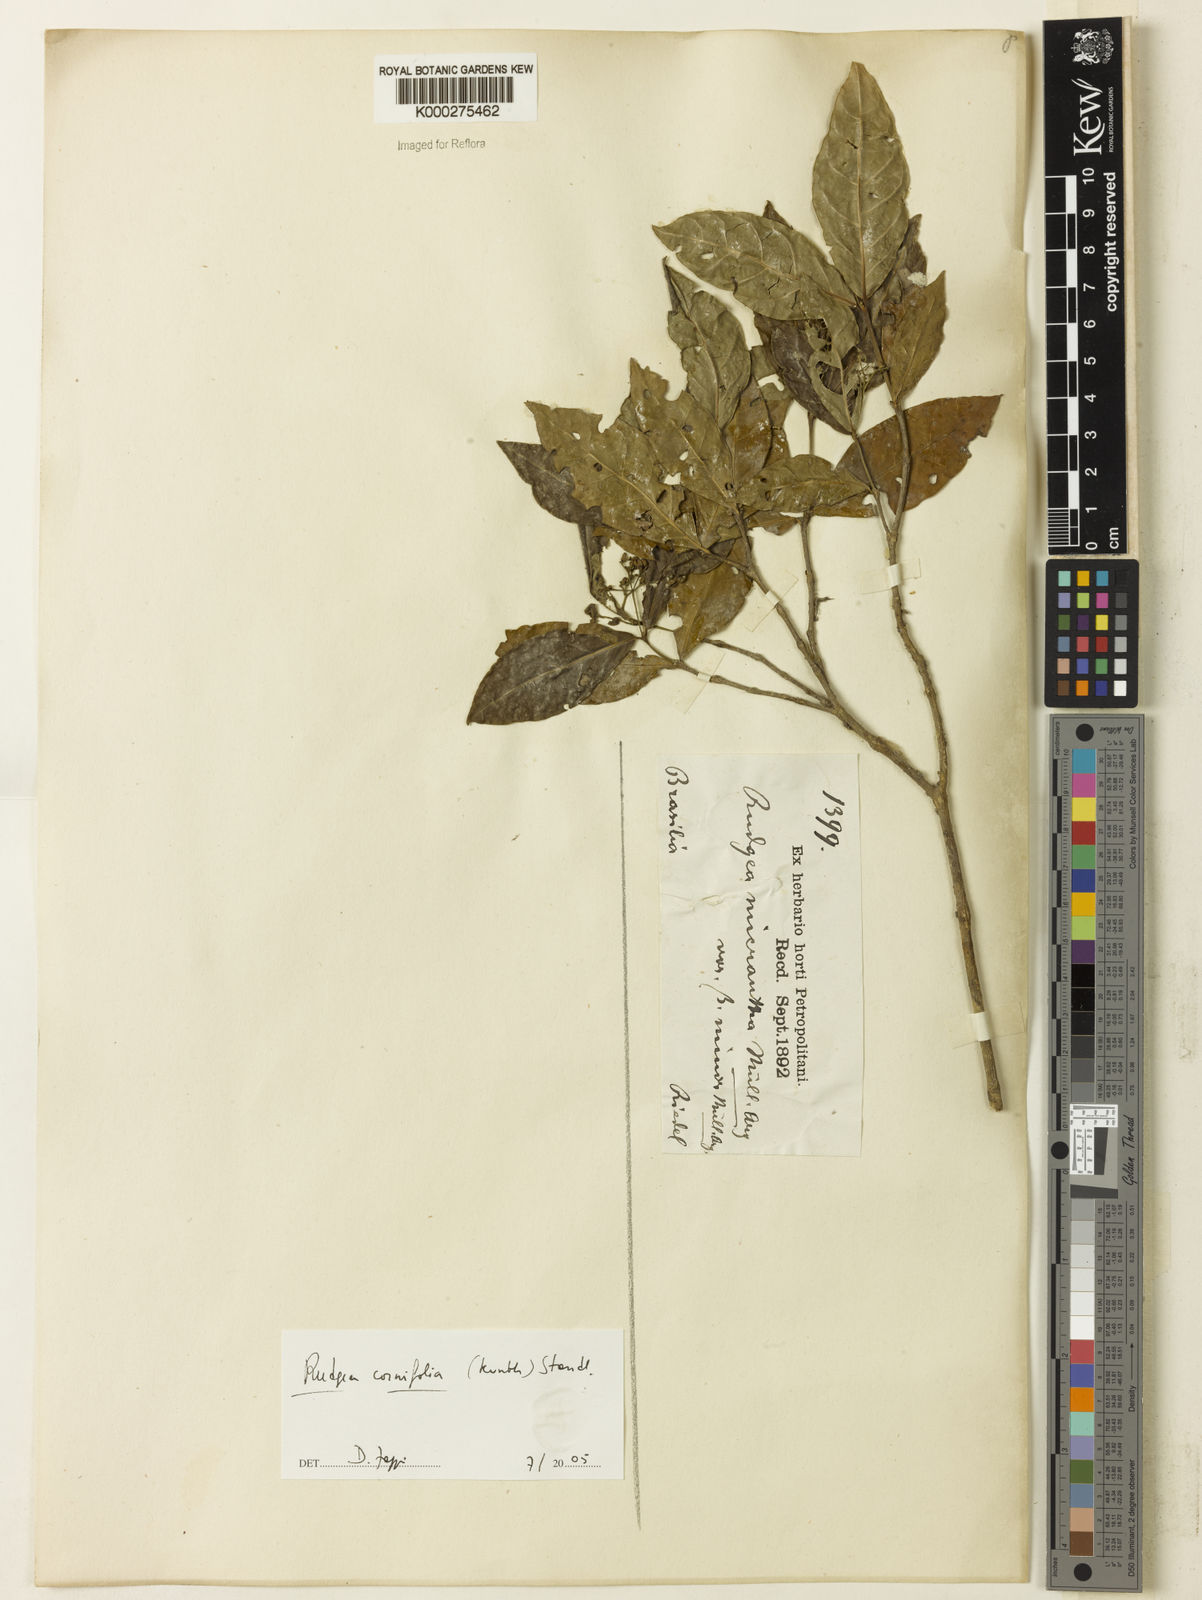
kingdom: Plantae
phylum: Tracheophyta
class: Magnoliopsida
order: Gentianales
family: Rubiaceae
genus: Rudgea
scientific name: Rudgea cornifolia
